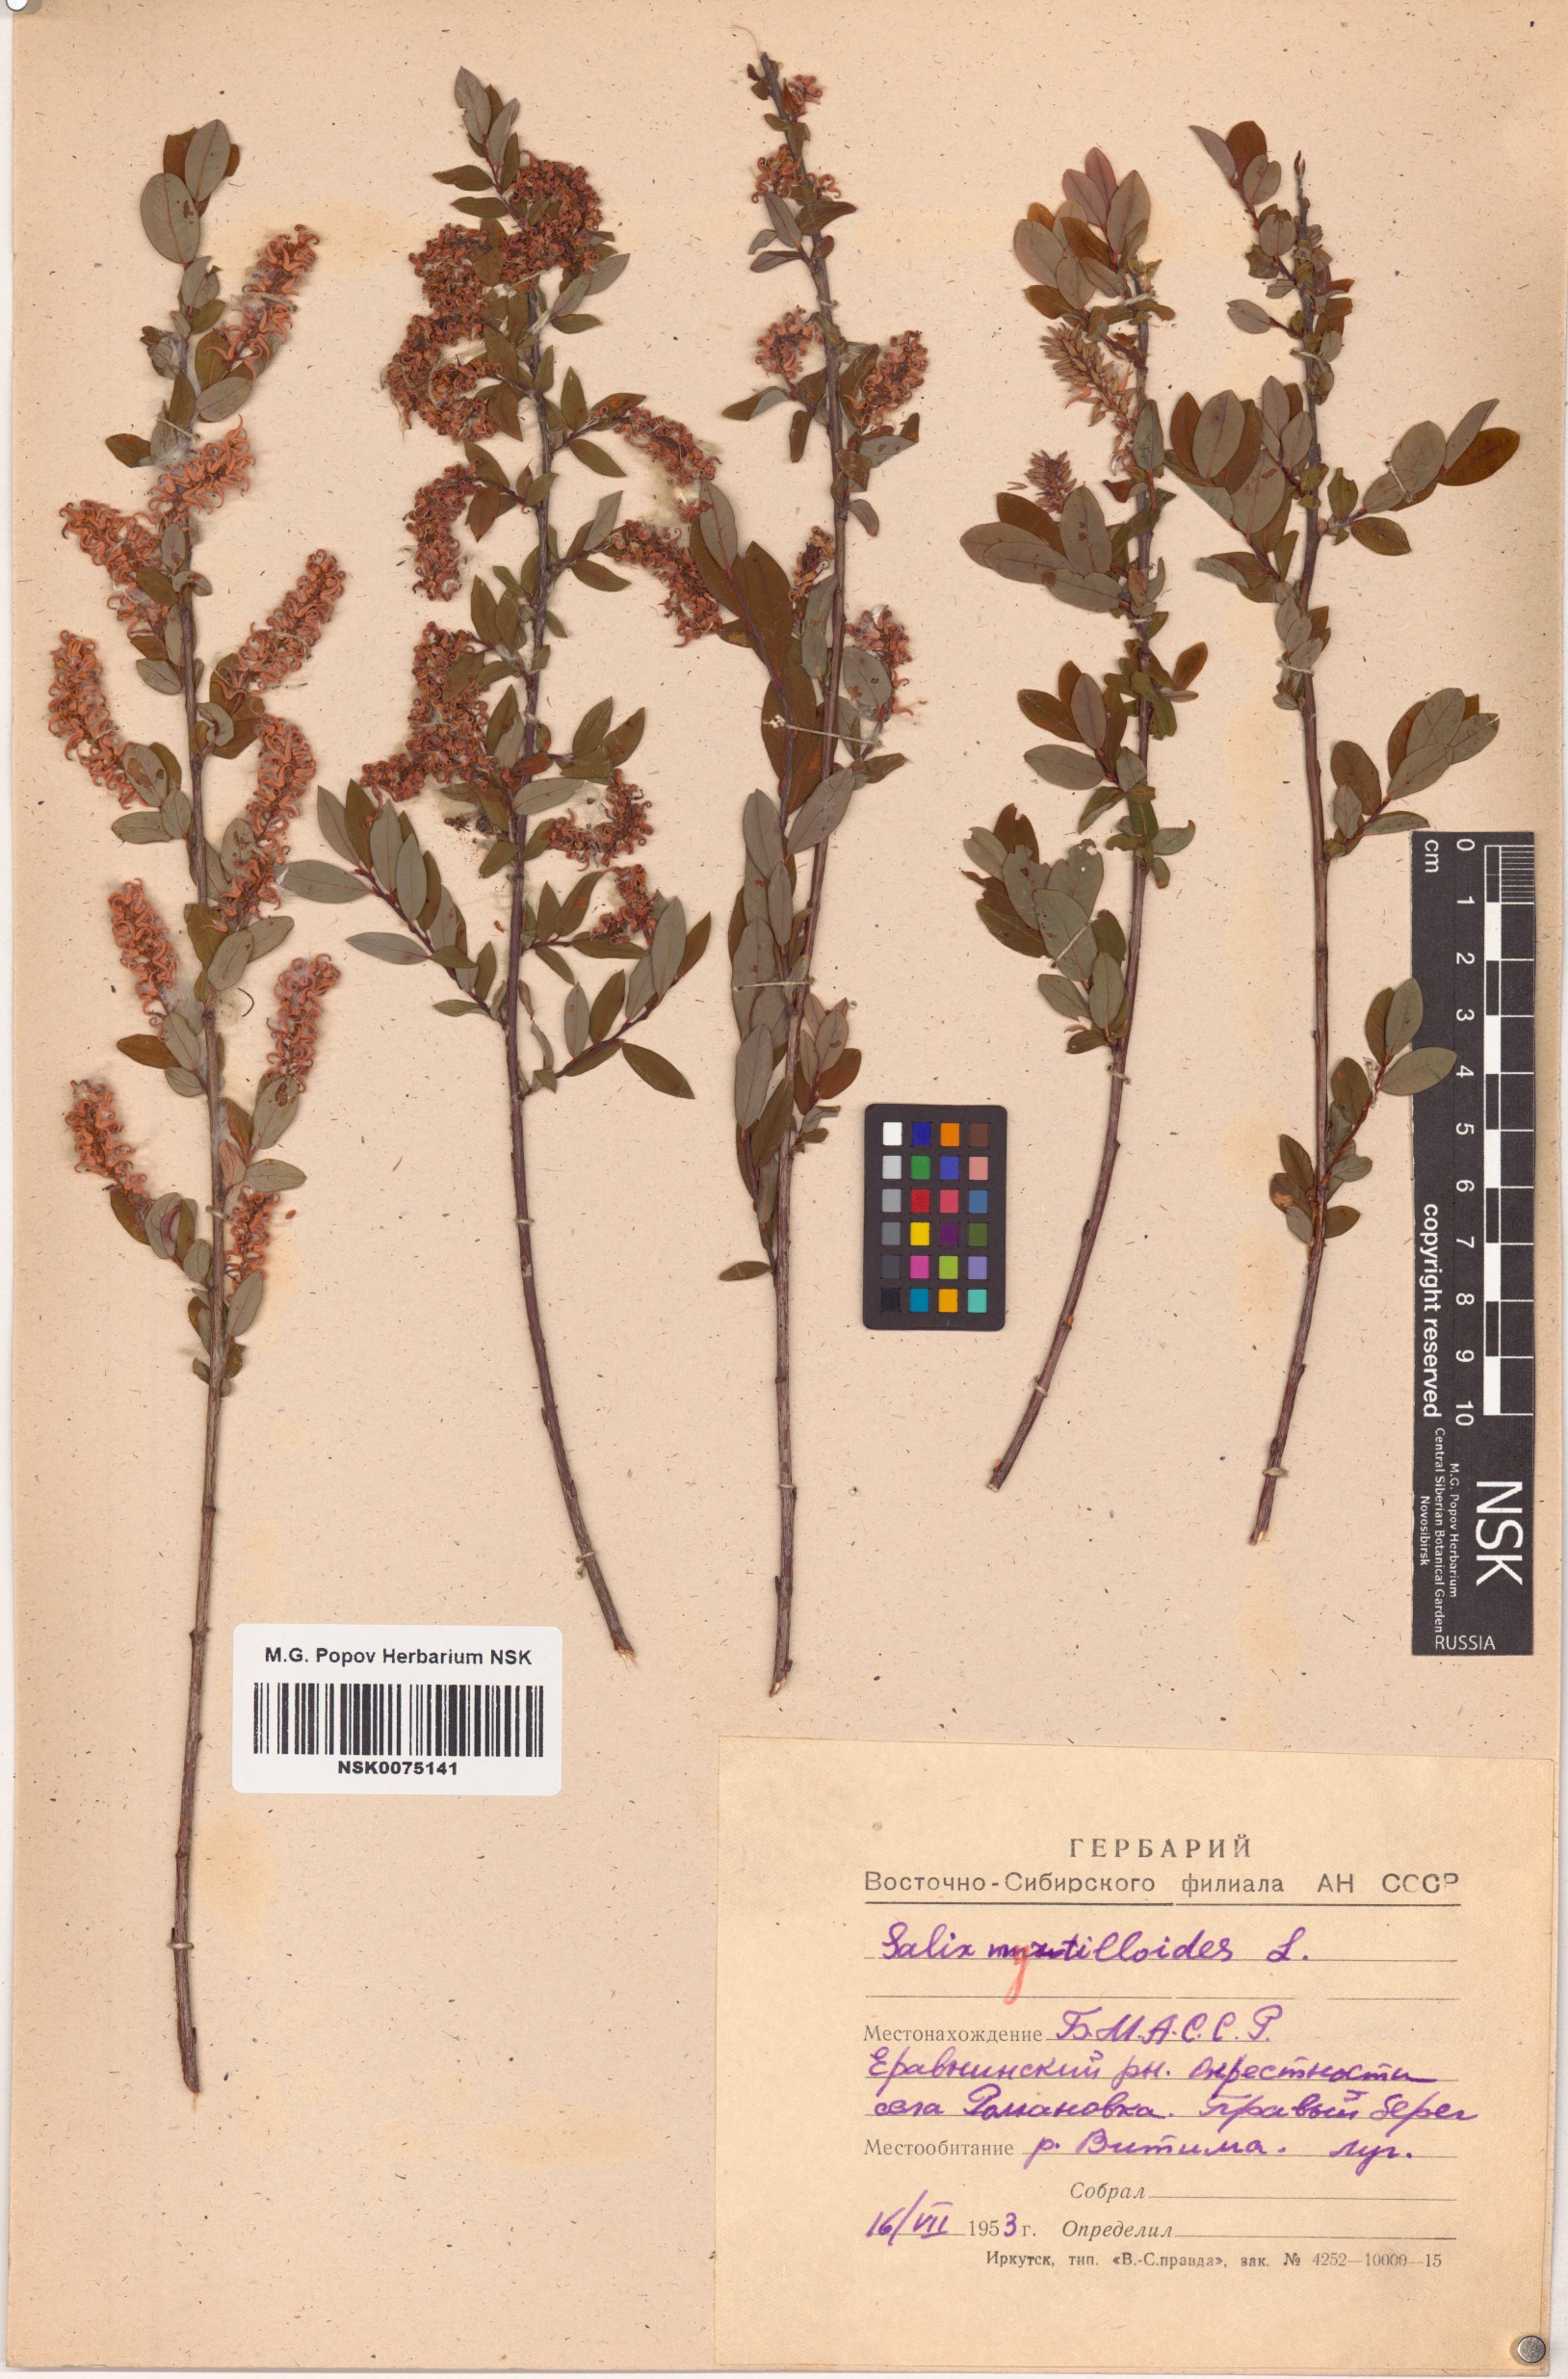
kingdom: Plantae
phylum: Tracheophyta
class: Magnoliopsida
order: Malpighiales
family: Salicaceae
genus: Salix
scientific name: Salix myrtilloides
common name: Myrtle-leaved willow
